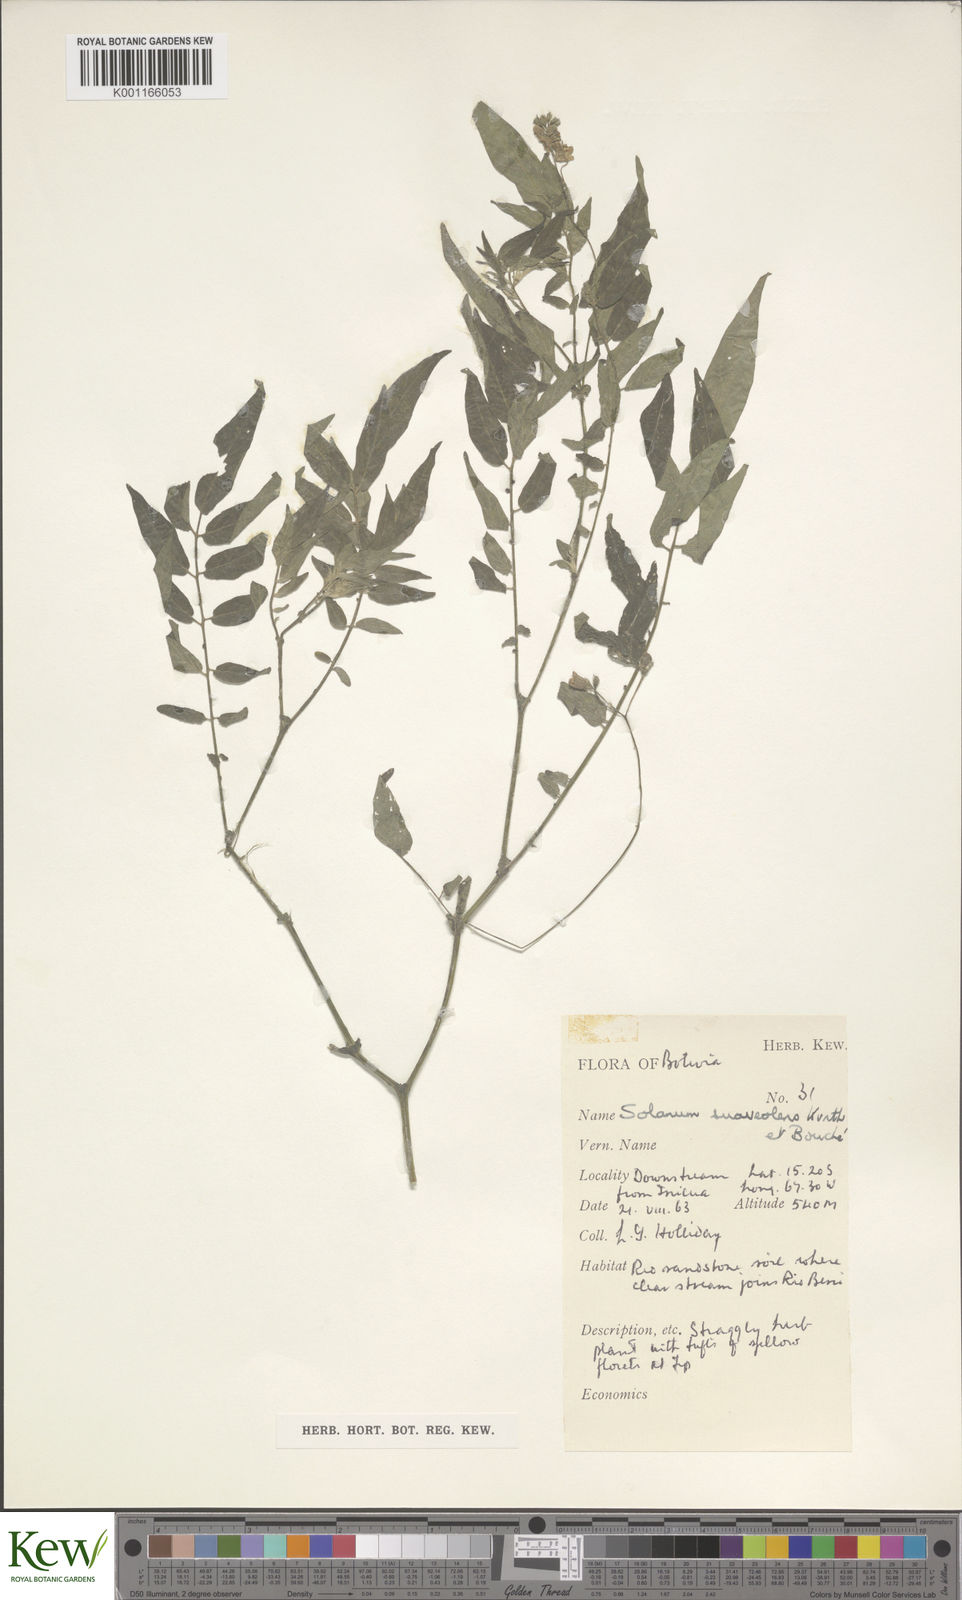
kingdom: Plantae
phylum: Tracheophyta
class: Magnoliopsida
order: Solanales
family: Solanaceae
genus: Solanum
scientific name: Solanum suaveolens
